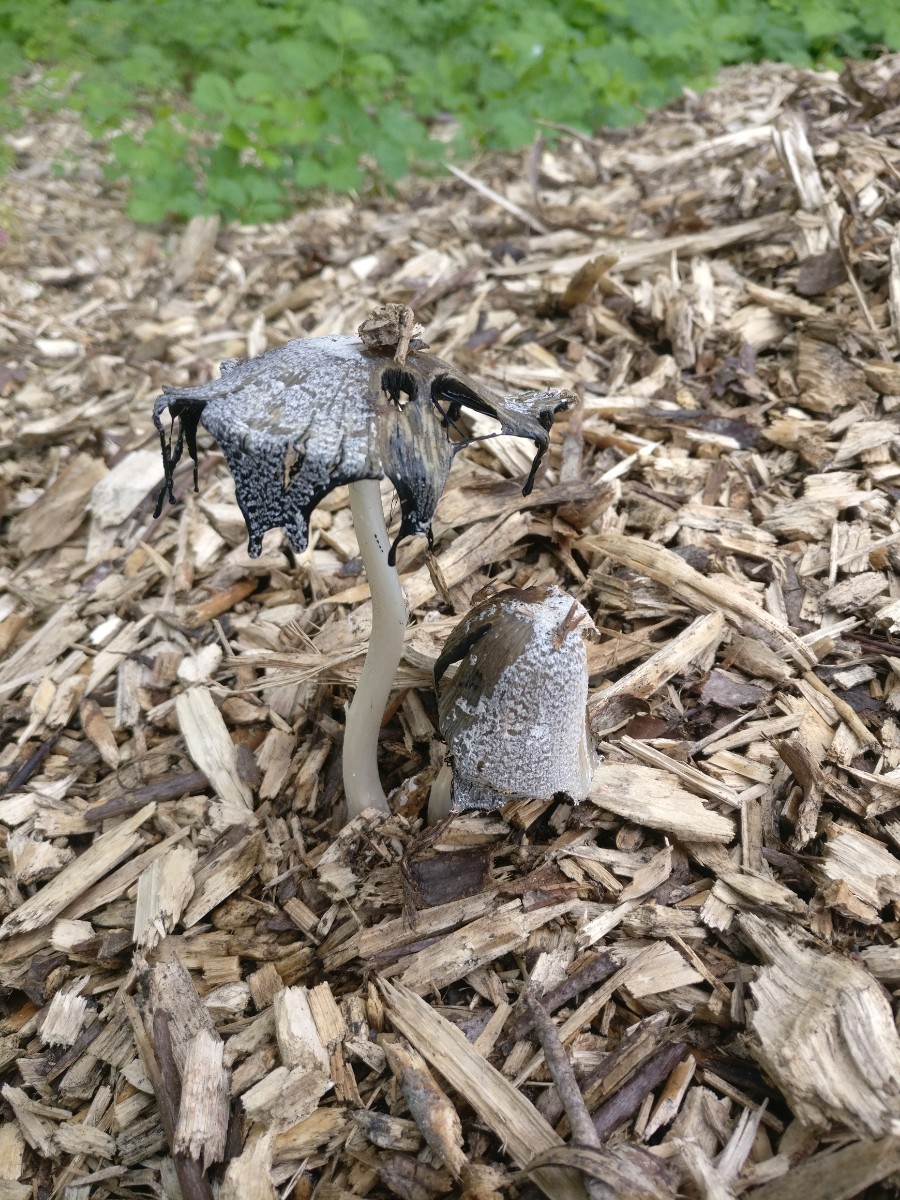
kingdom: Fungi
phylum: Basidiomycota
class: Agaricomycetes
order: Agaricales
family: Psathyrellaceae
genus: Coprinopsis
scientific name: Coprinopsis lagopus
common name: dunstokket blækhat
